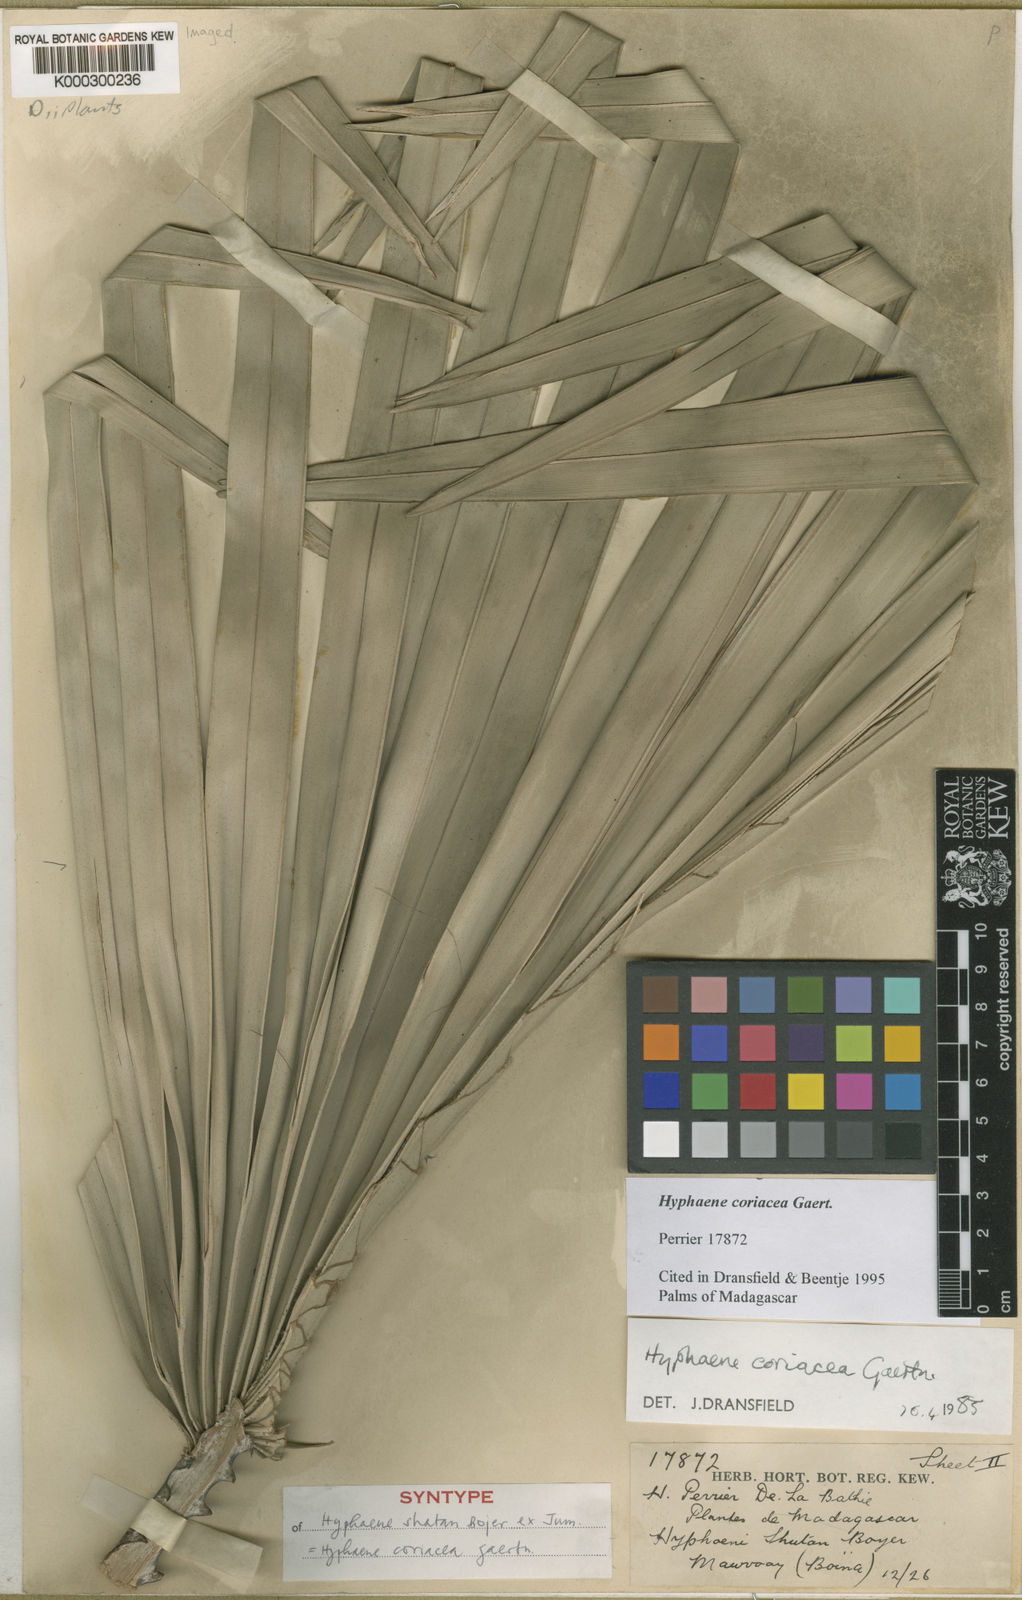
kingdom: Plantae
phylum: Tracheophyta
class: Liliopsida
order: Arecales
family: Arecaceae
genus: Hyphaene
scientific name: Hyphaene coriacea
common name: Ilala palm
